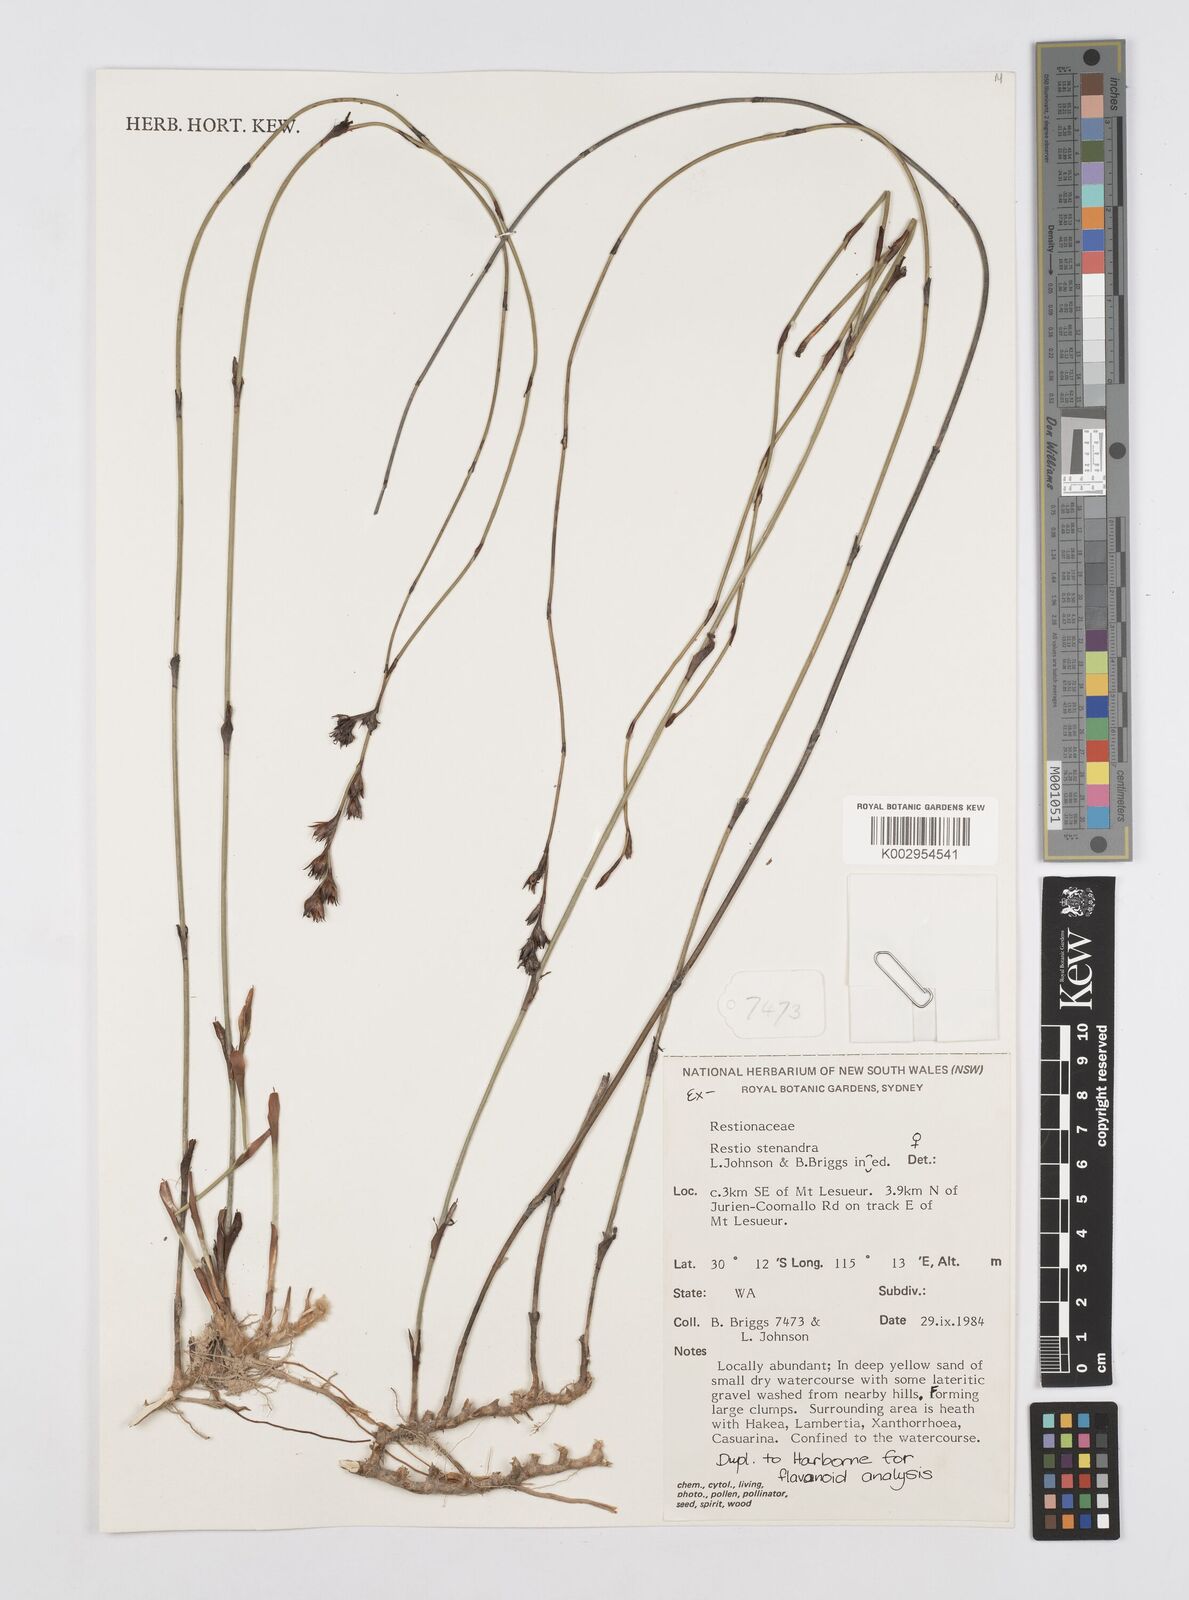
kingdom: Plantae
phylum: Tracheophyta
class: Liliopsida
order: Poales
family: Restionaceae
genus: Chordifex
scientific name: Chordifex stenandrus
